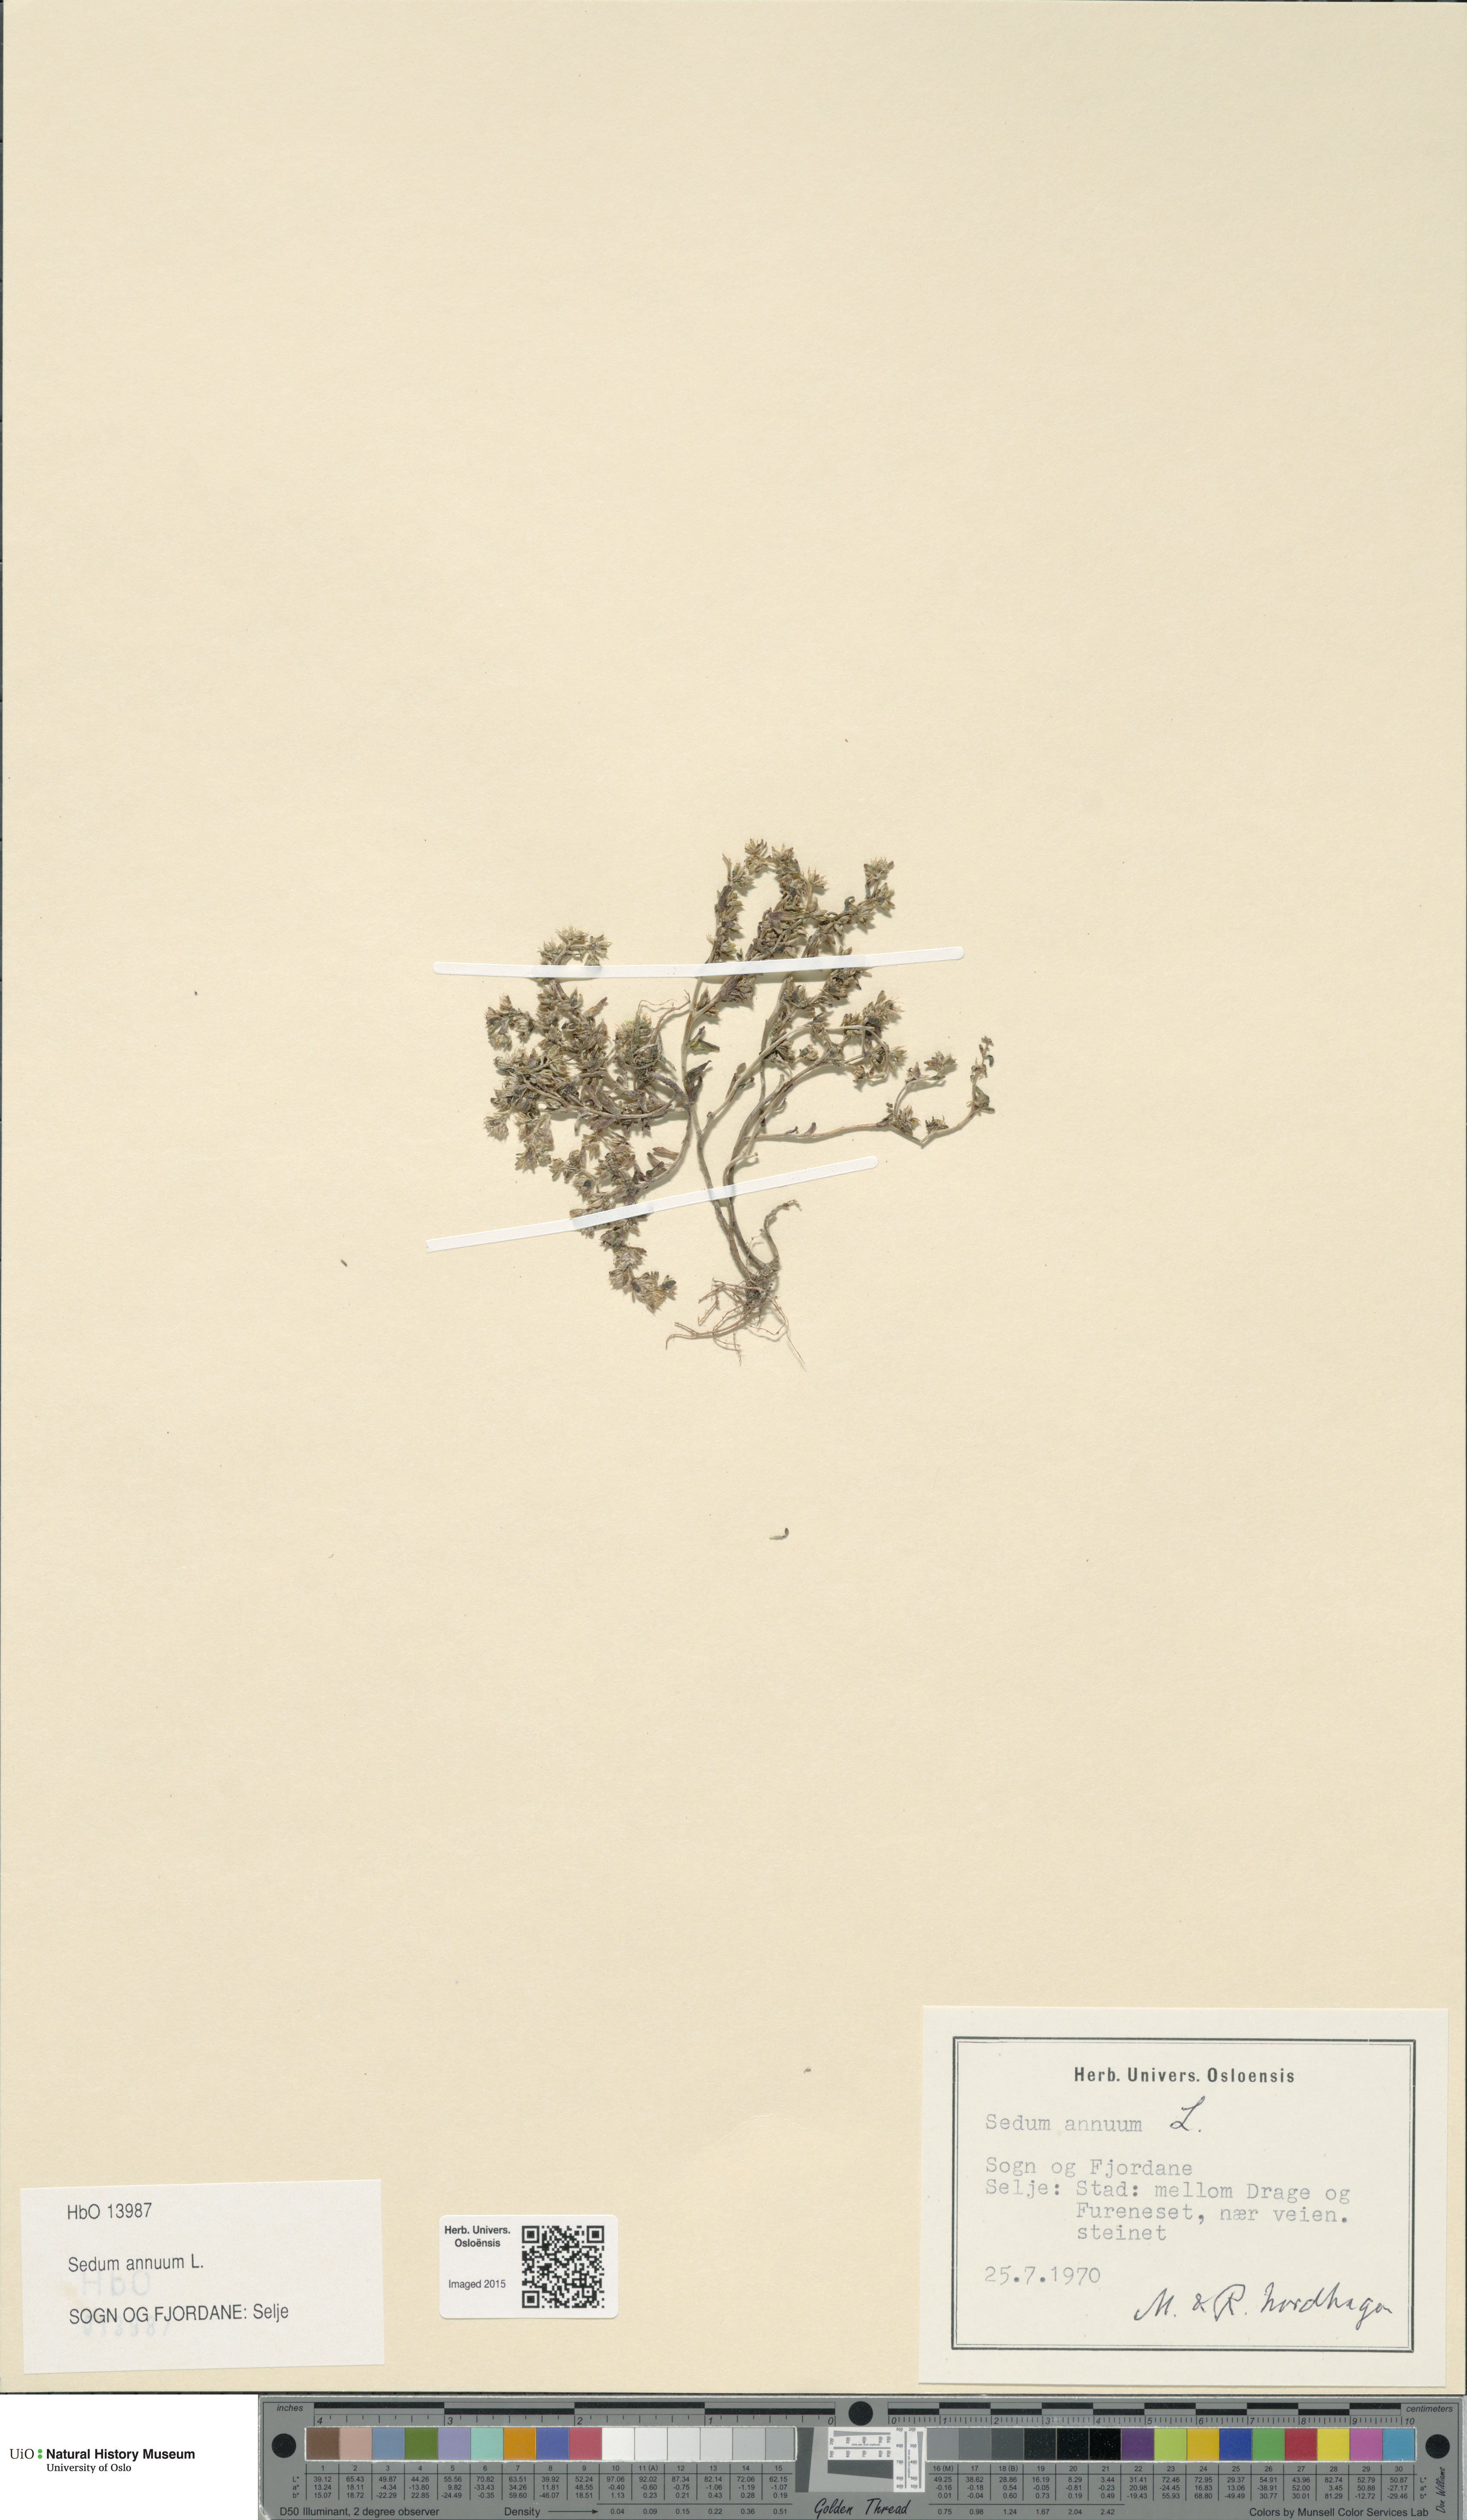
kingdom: Plantae
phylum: Tracheophyta
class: Magnoliopsida
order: Saxifragales
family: Crassulaceae
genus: Sedum
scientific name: Sedum annuum
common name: Annual stonecrop
